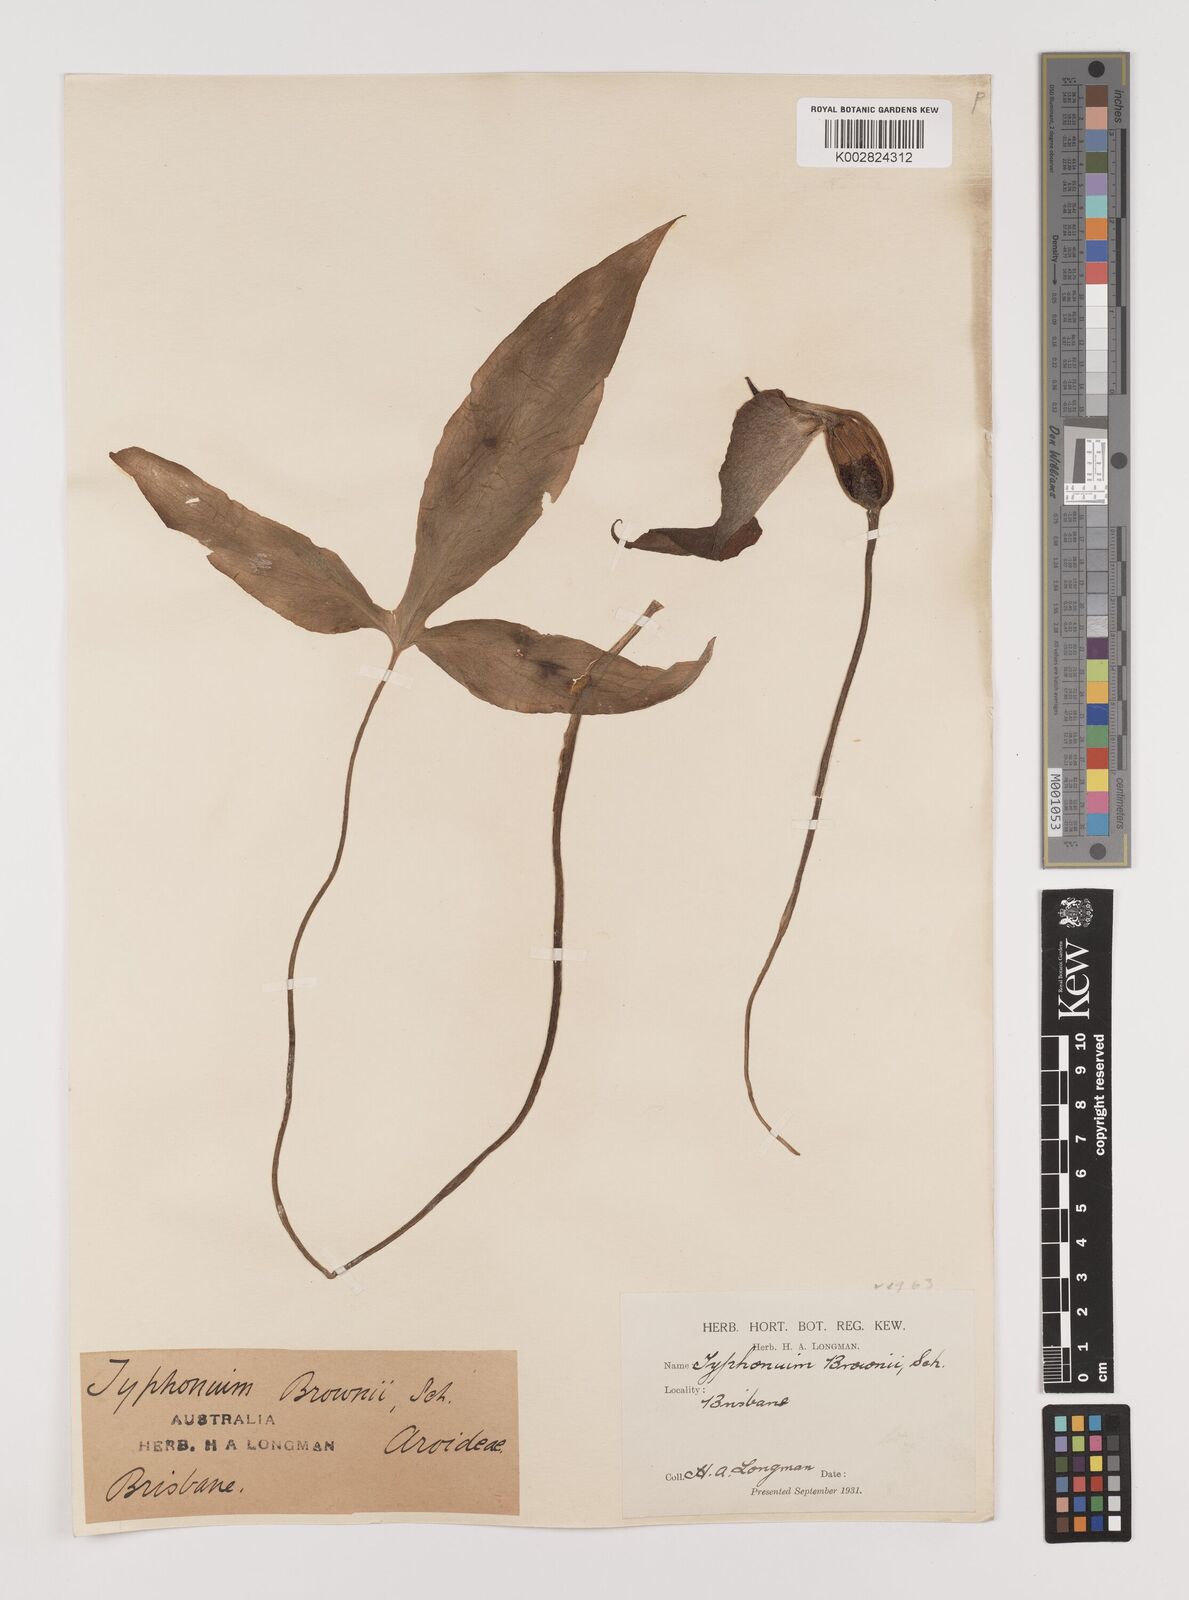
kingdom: Plantae
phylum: Tracheophyta
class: Liliopsida
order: Alismatales
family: Araceae
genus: Typhonium
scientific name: Typhonium brownii
